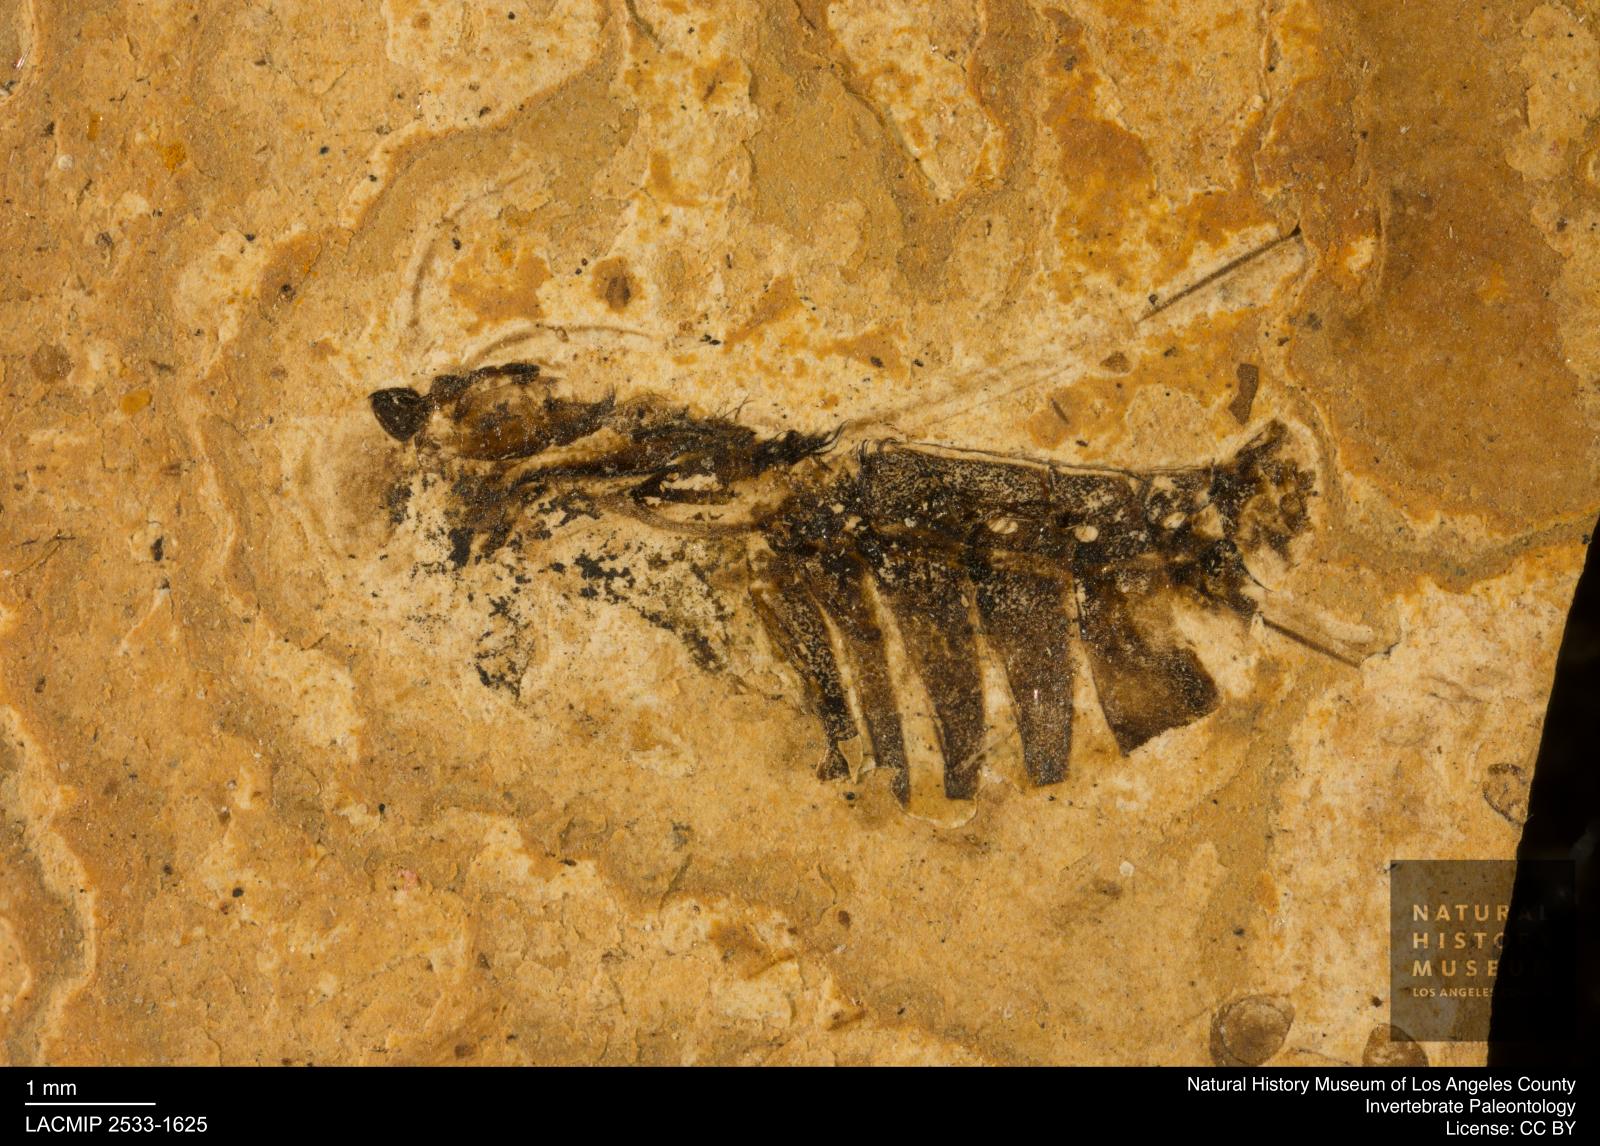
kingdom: Animalia
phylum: Arthropoda
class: Insecta
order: Hemiptera
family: Notonectidae
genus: Notonecta
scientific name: Notonecta
